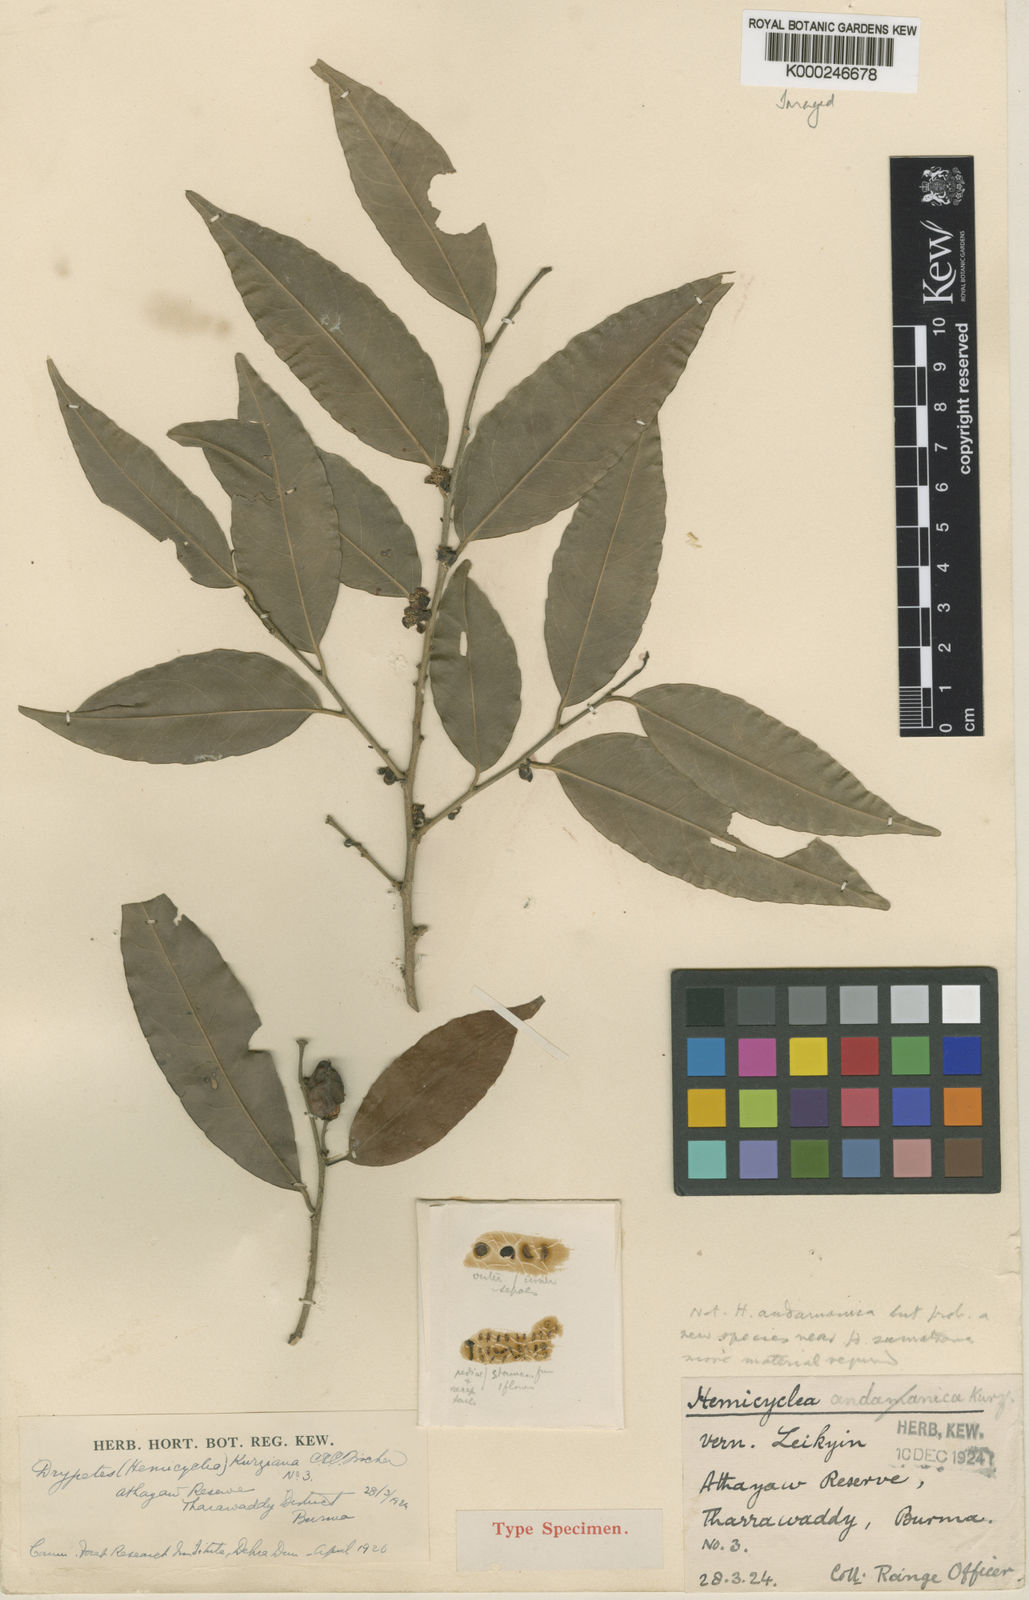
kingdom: Plantae
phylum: Tracheophyta
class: Magnoliopsida
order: Malpighiales
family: Putranjivaceae
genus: Drypetes
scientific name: Drypetes sumatrana
